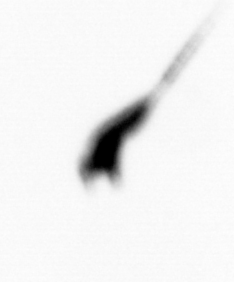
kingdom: Animalia
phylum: Arthropoda
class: Copepoda
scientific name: Copepoda
